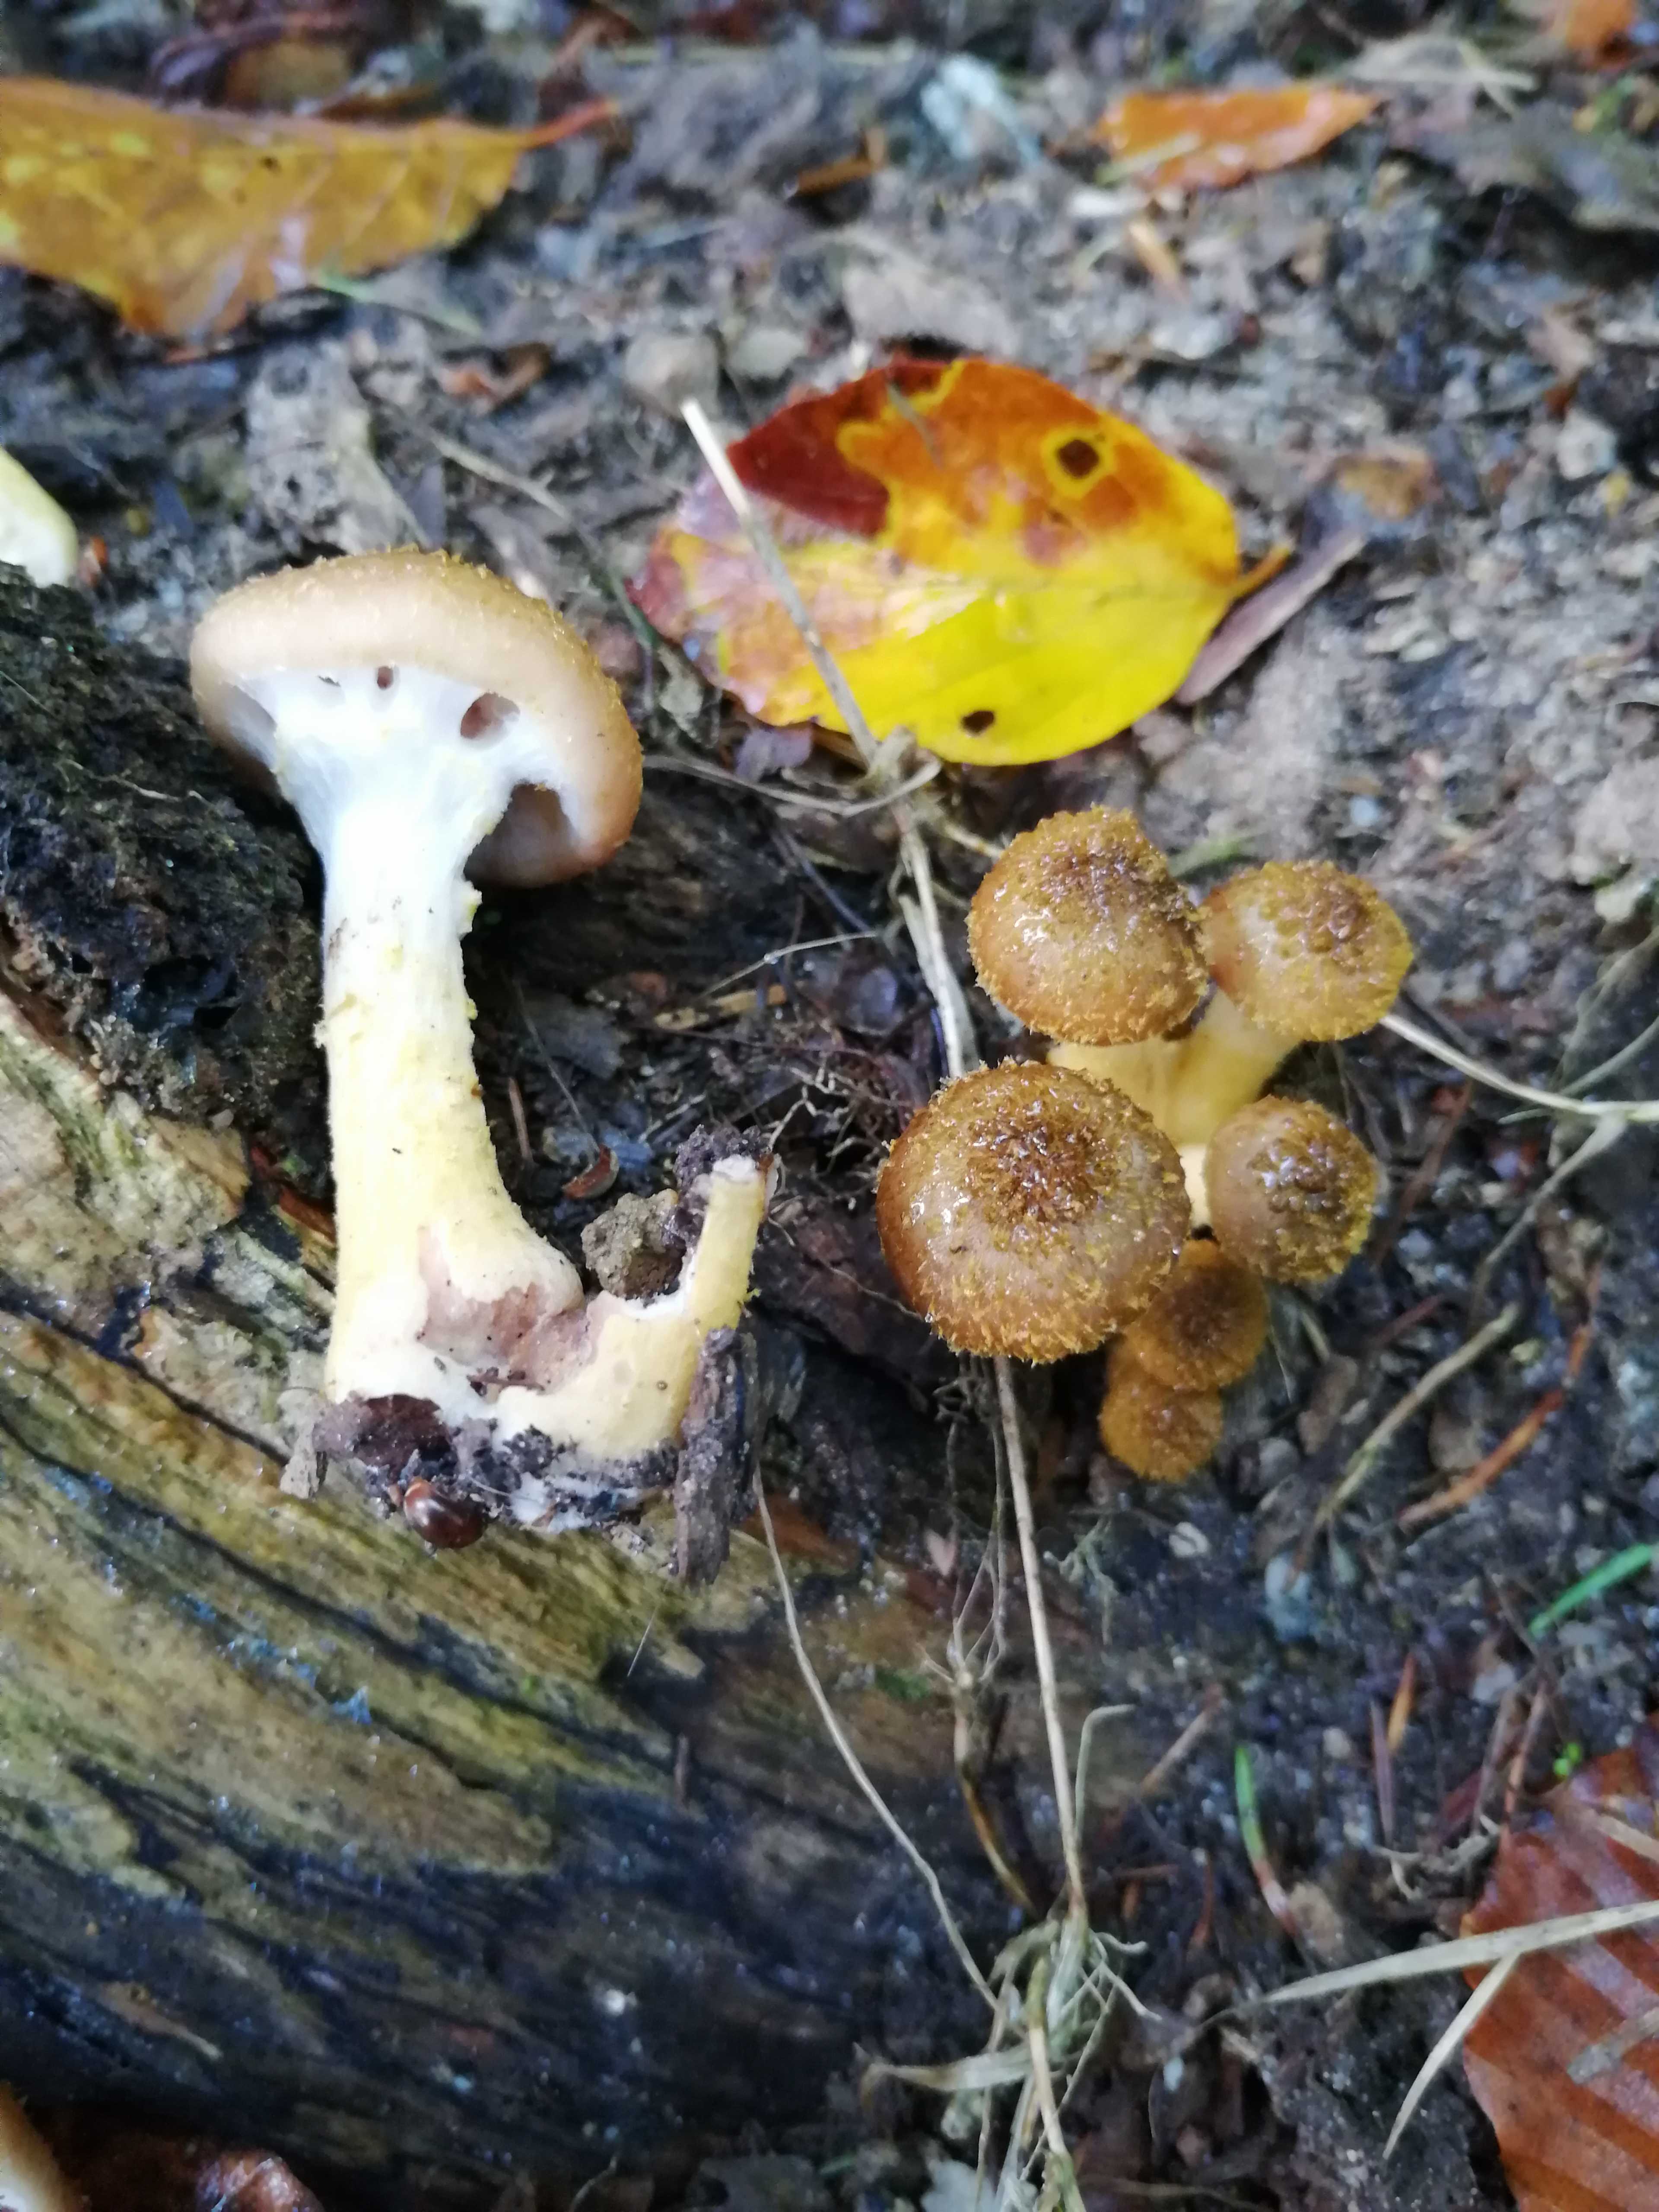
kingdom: Fungi
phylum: Basidiomycota
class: Agaricomycetes
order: Agaricales
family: Physalacriaceae
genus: Armillaria
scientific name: Armillaria lutea
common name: køllestokket honningsvamp
